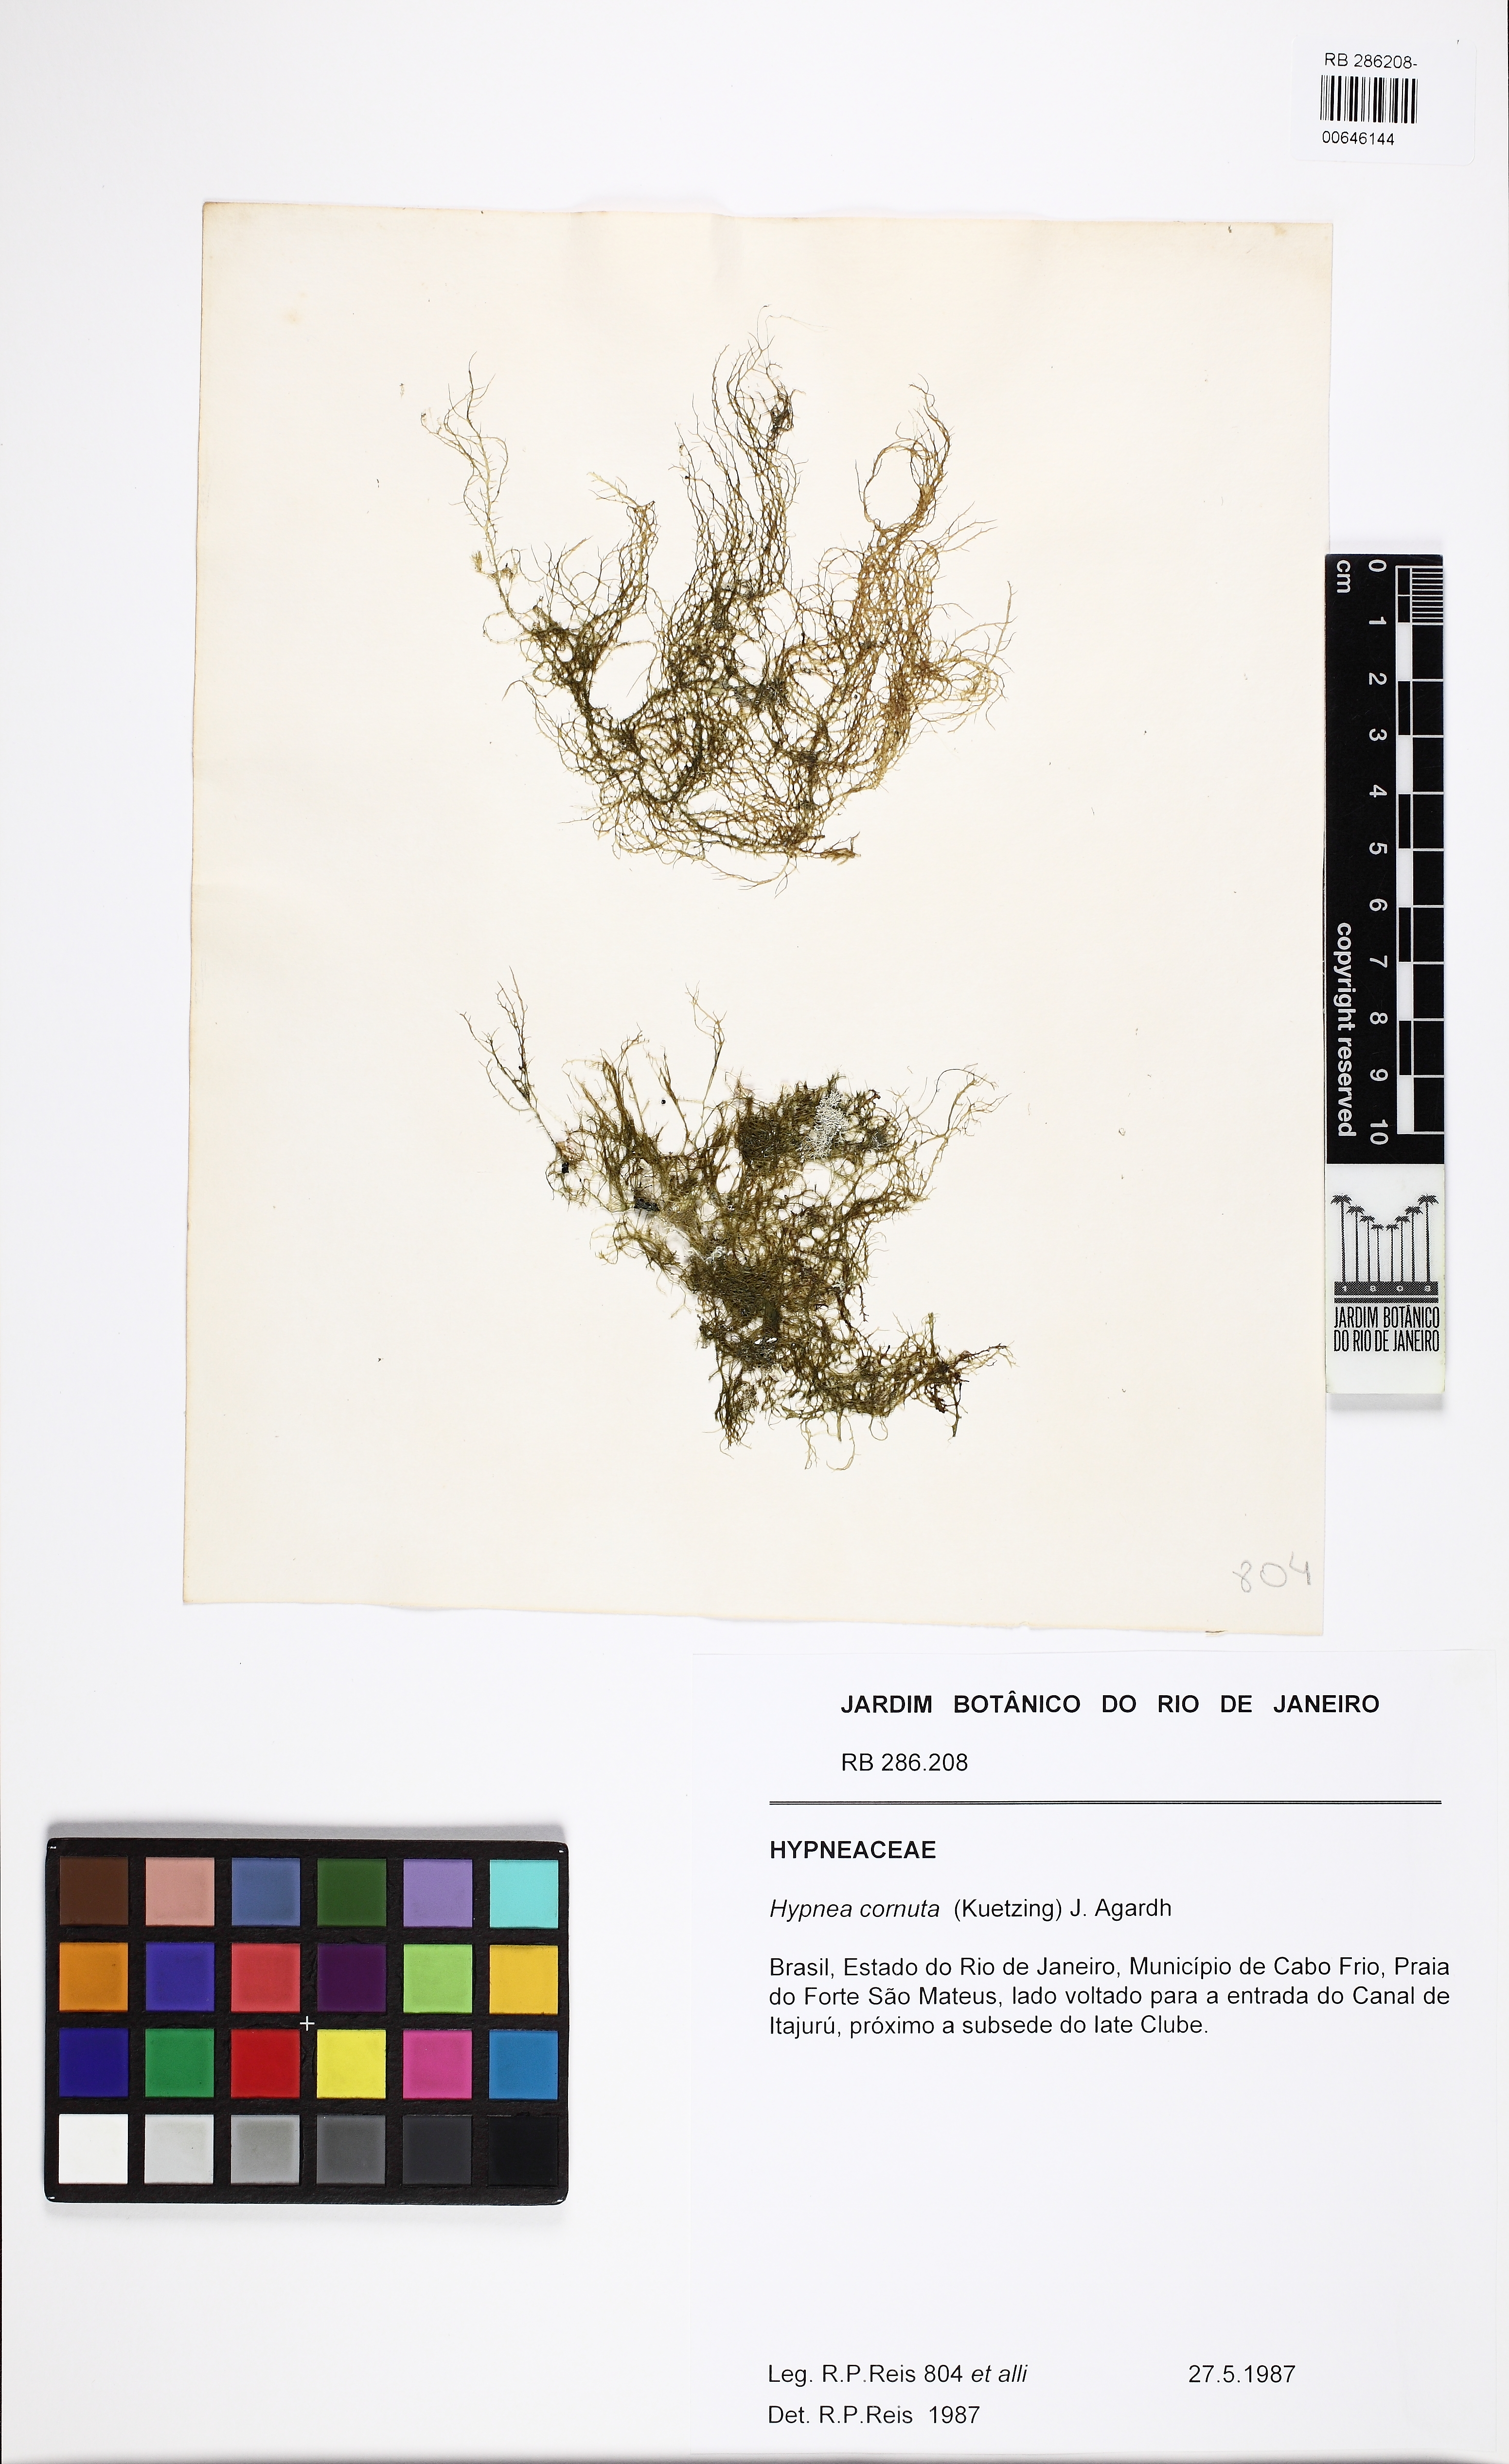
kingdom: Plantae
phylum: Rhodophyta
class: Florideophyceae
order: Gigartinales
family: Cystocloniaceae
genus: Hypnea
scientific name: Hypnea cornuta
